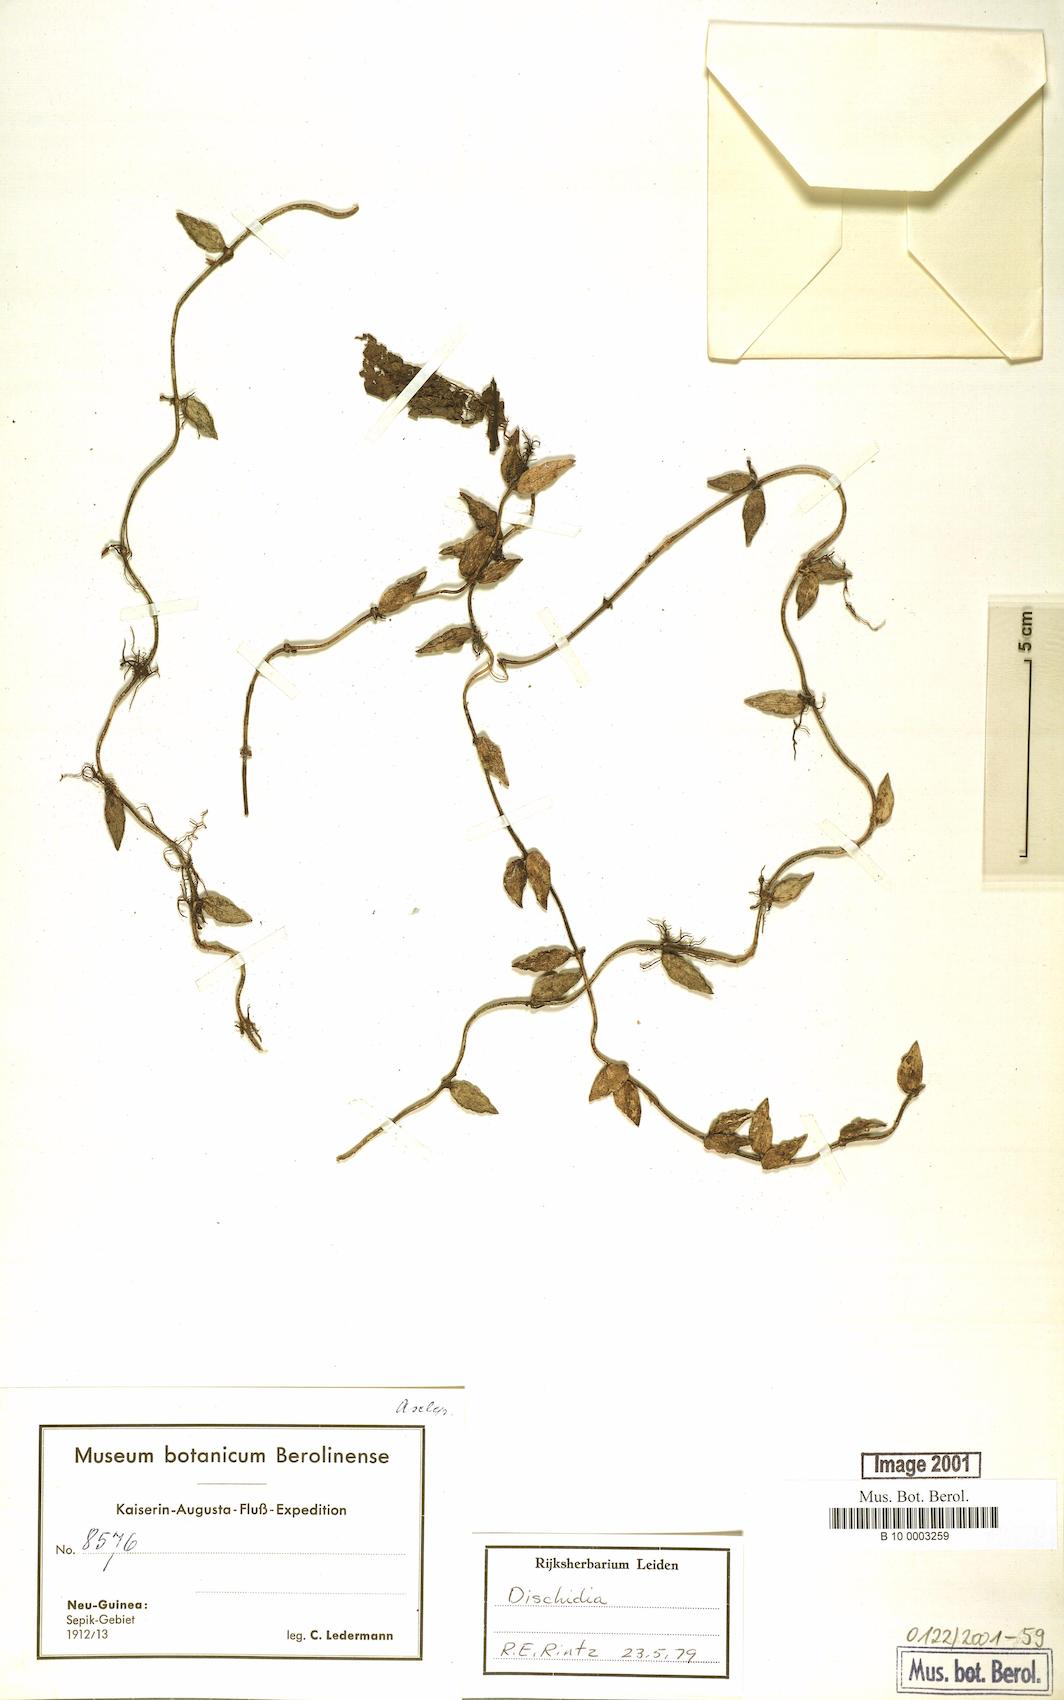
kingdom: Plantae
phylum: Tracheophyta
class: Magnoliopsida
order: Gentianales
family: Apocynaceae
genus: Dischidia
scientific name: Dischidia
